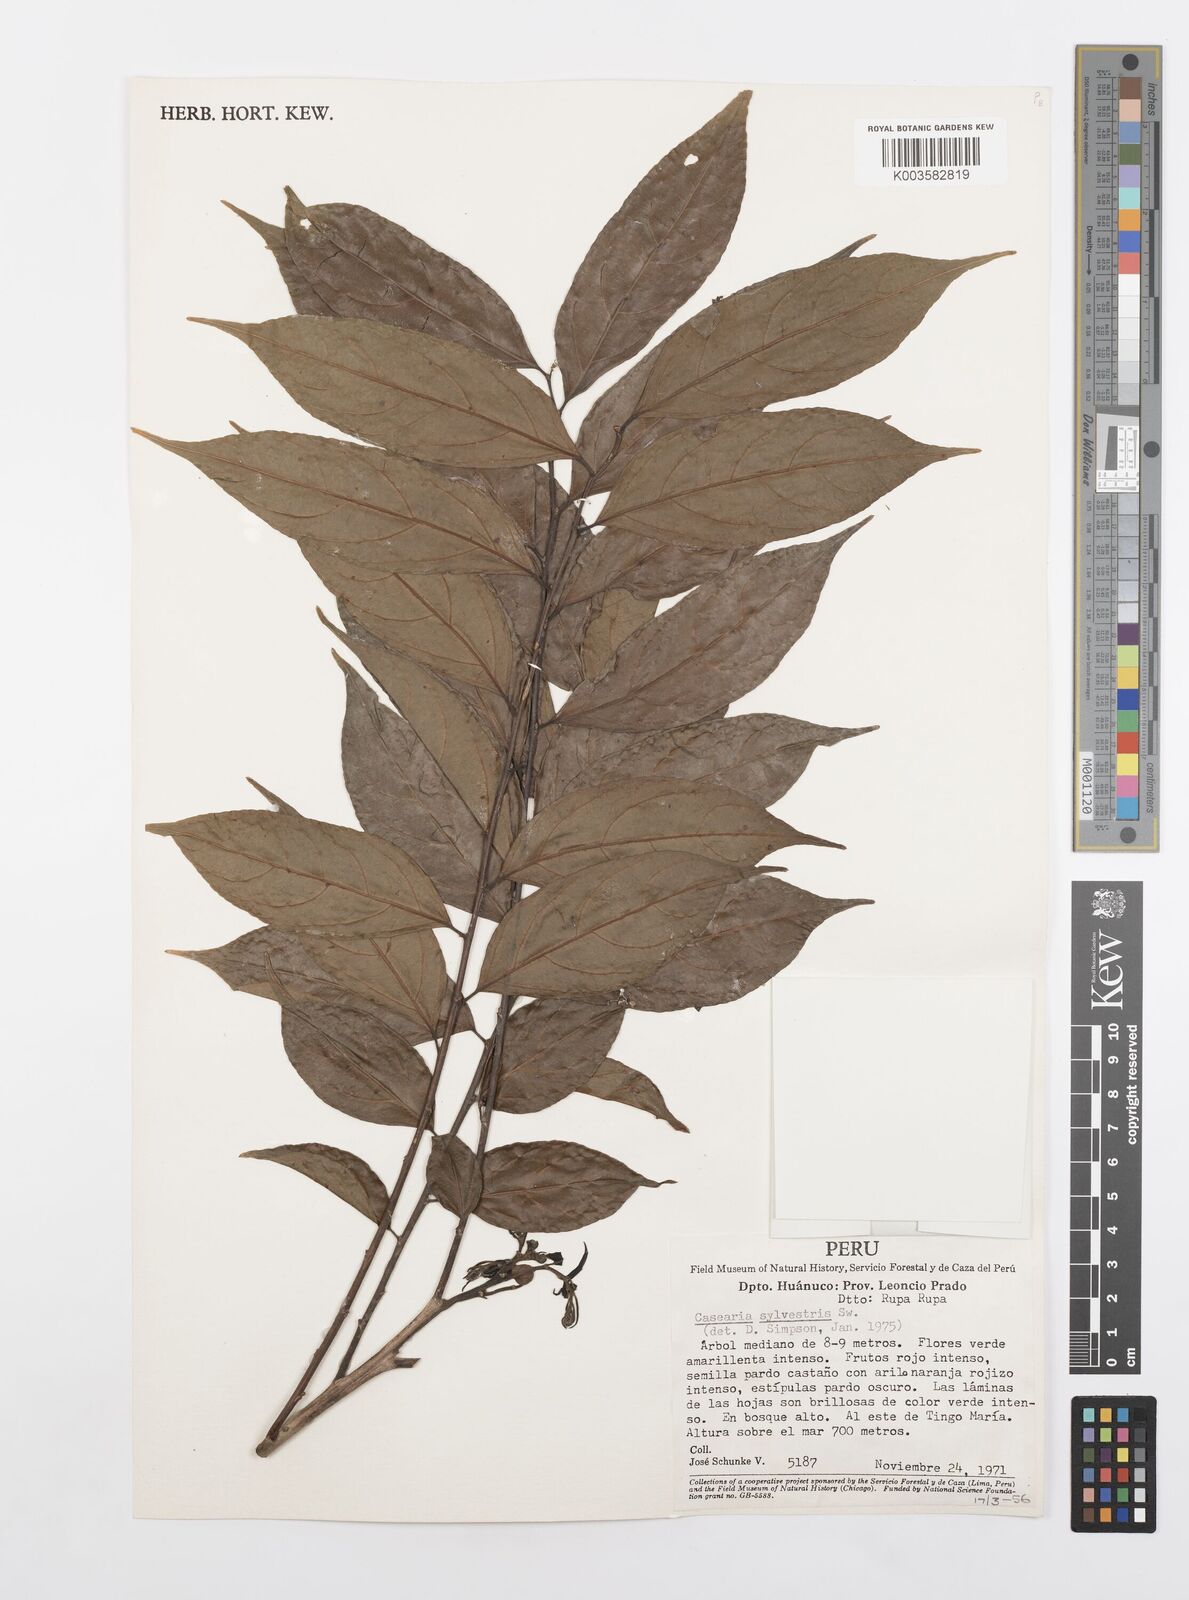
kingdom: Plantae
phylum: Tracheophyta
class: Magnoliopsida
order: Malpighiales
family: Salicaceae
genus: Casearia
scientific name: Casearia sylvestris
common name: Wild sage
